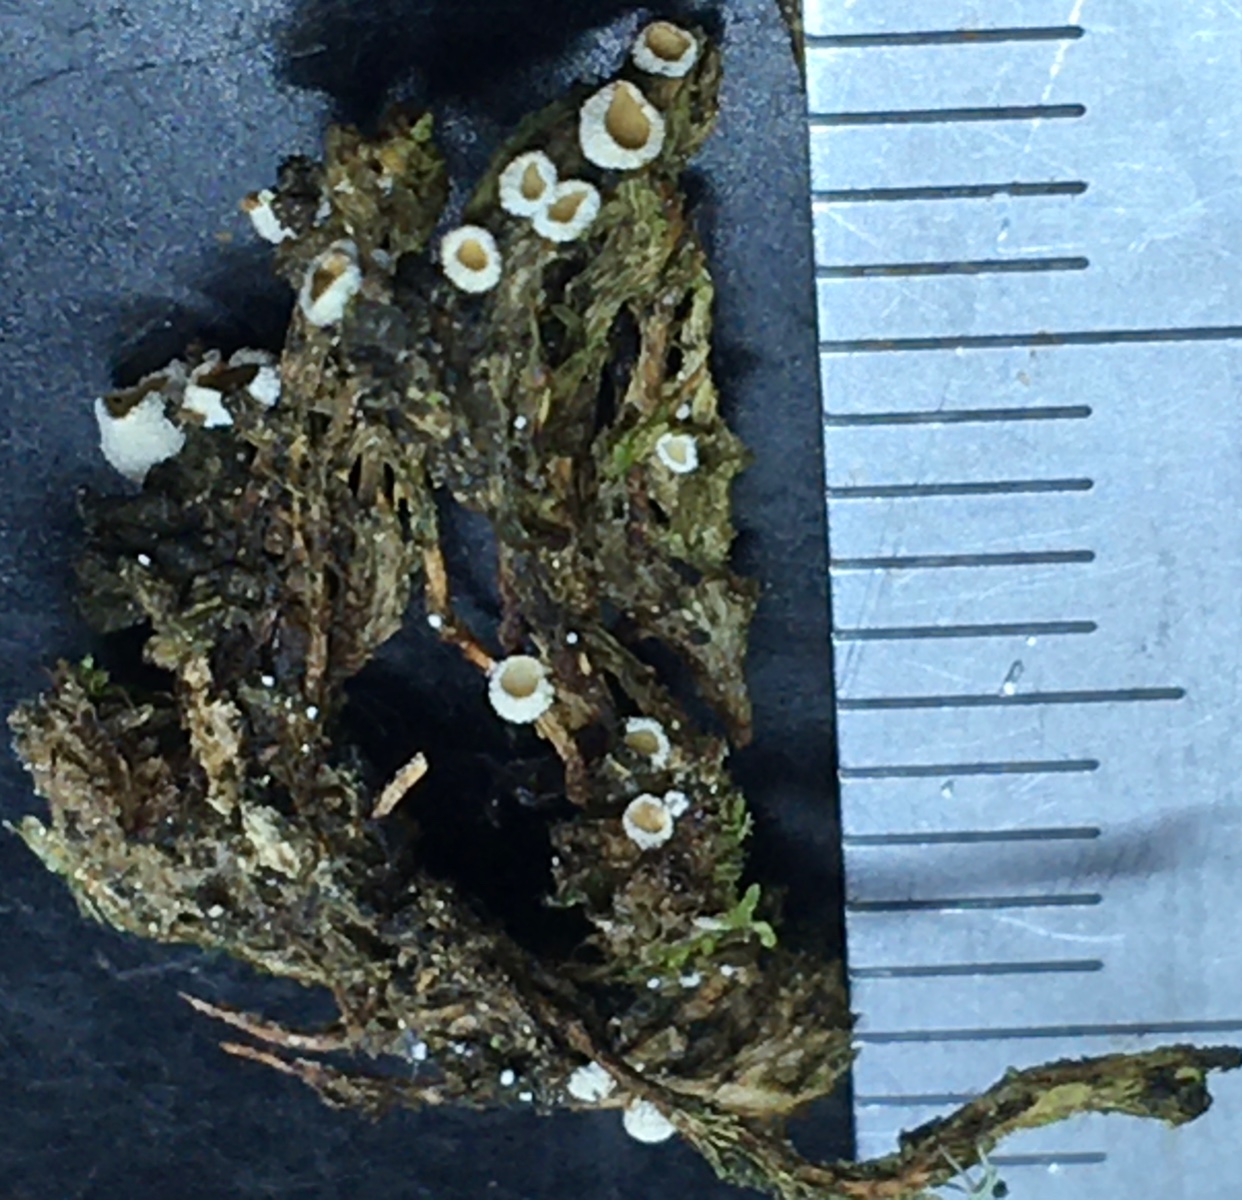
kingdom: Fungi
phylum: Basidiomycota
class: Agaricomycetes
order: Agaricales
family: Chromocyphellaceae
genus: Chromocyphella
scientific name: Chromocyphella muscicola
